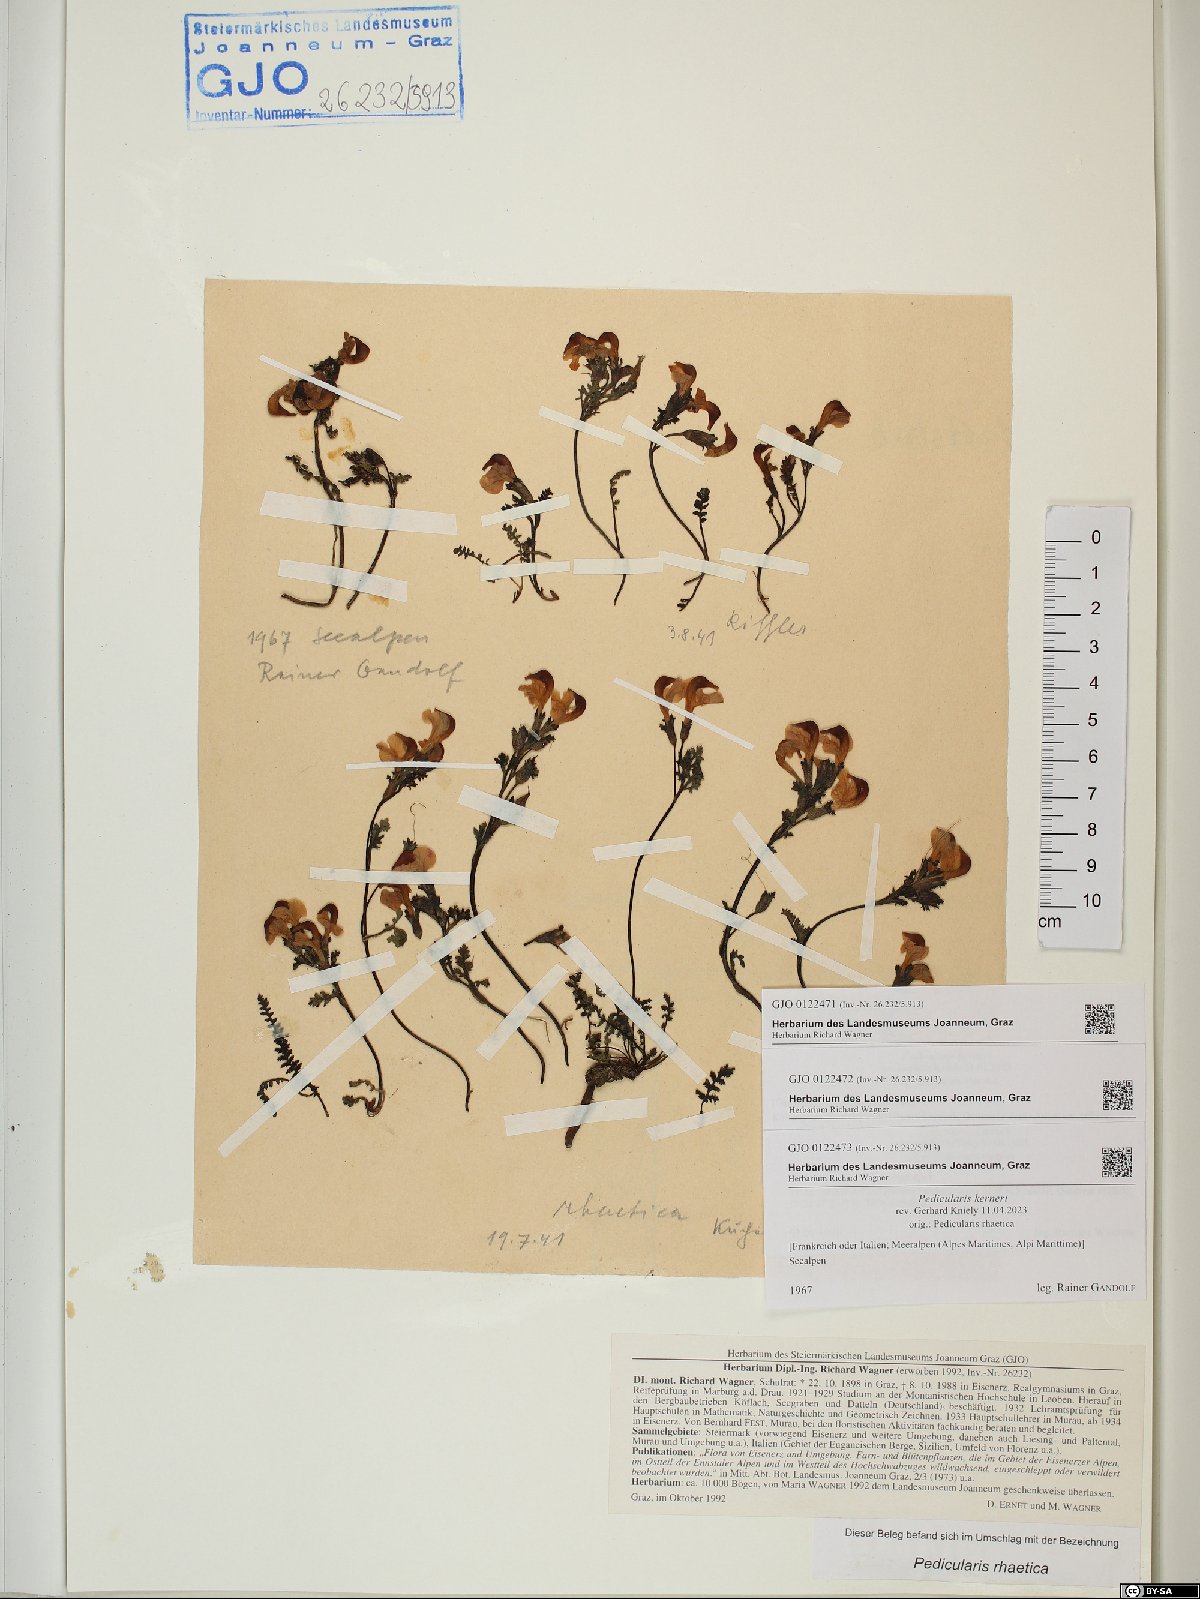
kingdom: Plantae
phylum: Tracheophyta
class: Magnoliopsida
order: Lamiales
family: Orobanchaceae
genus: Pedicularis
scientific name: Pedicularis kerneri
